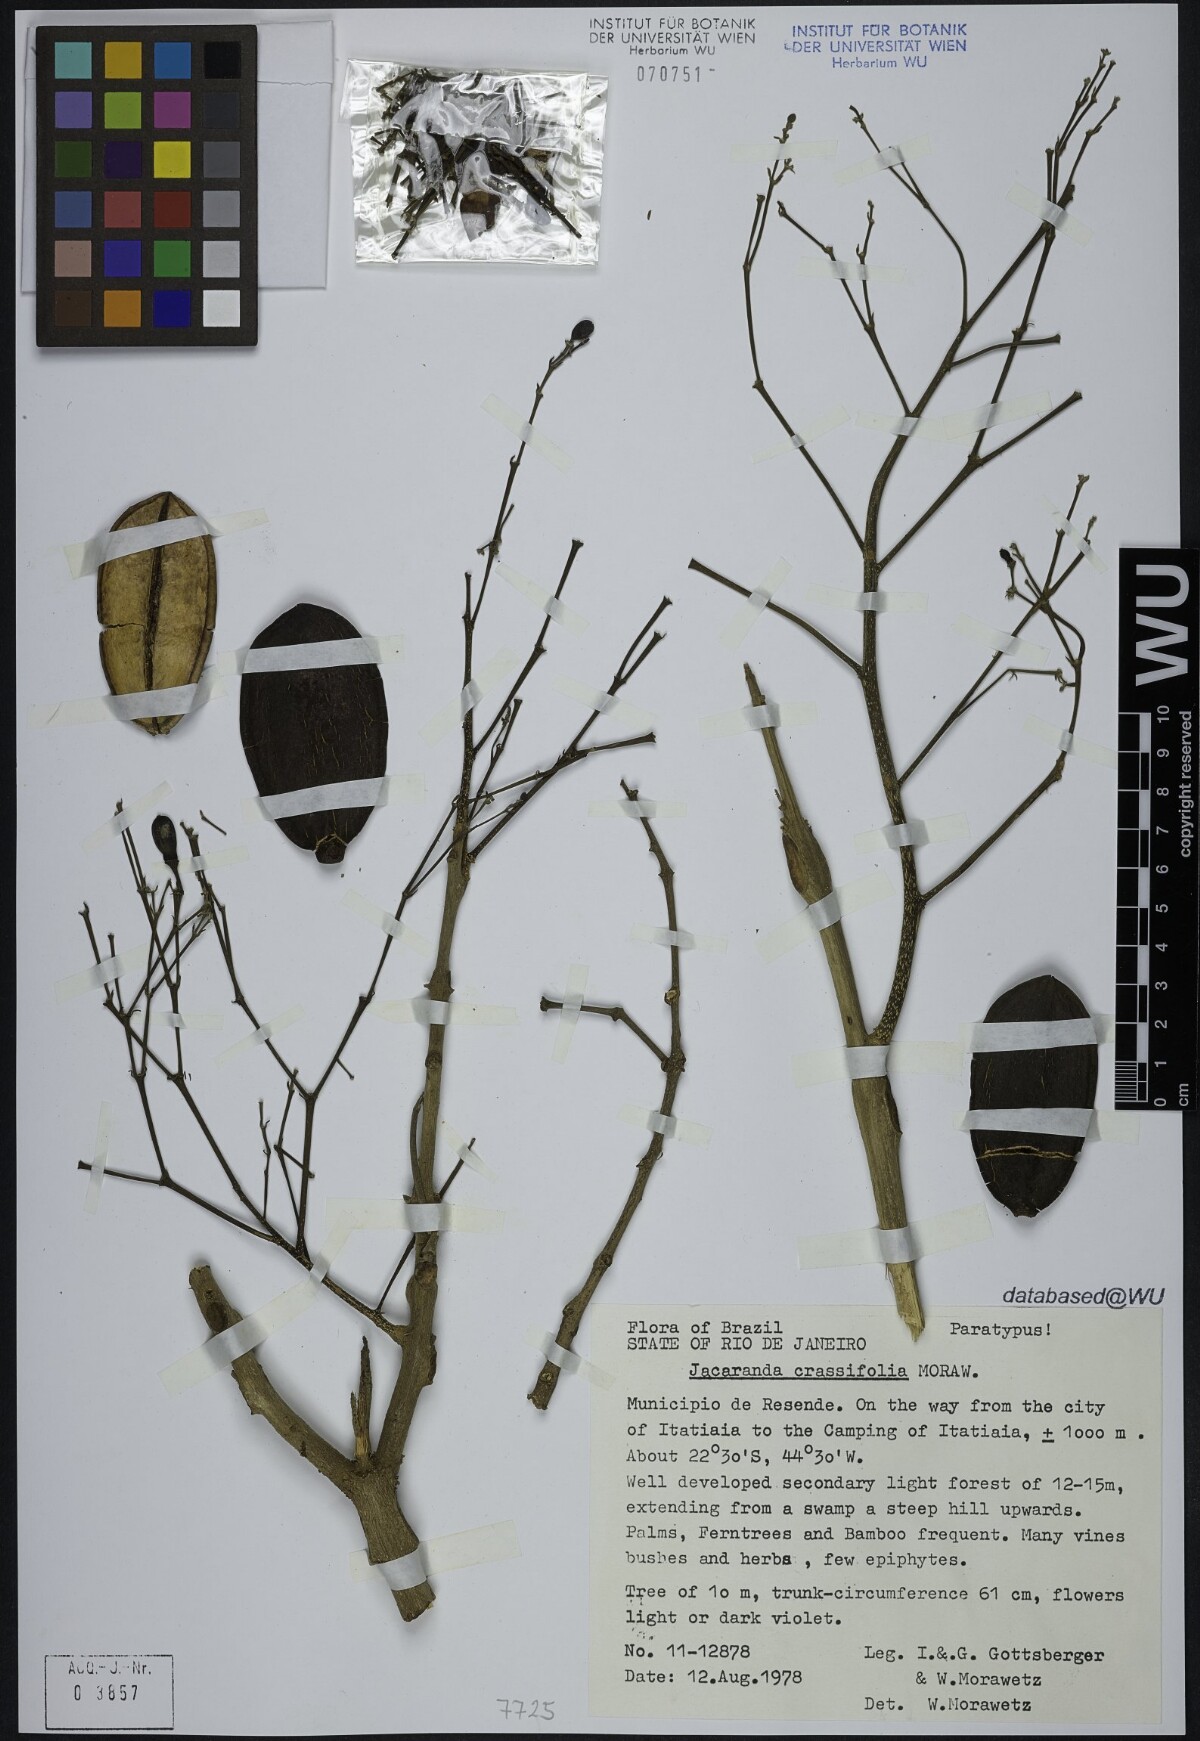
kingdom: Plantae
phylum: Tracheophyta
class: Magnoliopsida
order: Lamiales
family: Bignoniaceae
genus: Jacaranda
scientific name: Jacaranda crassifolia
